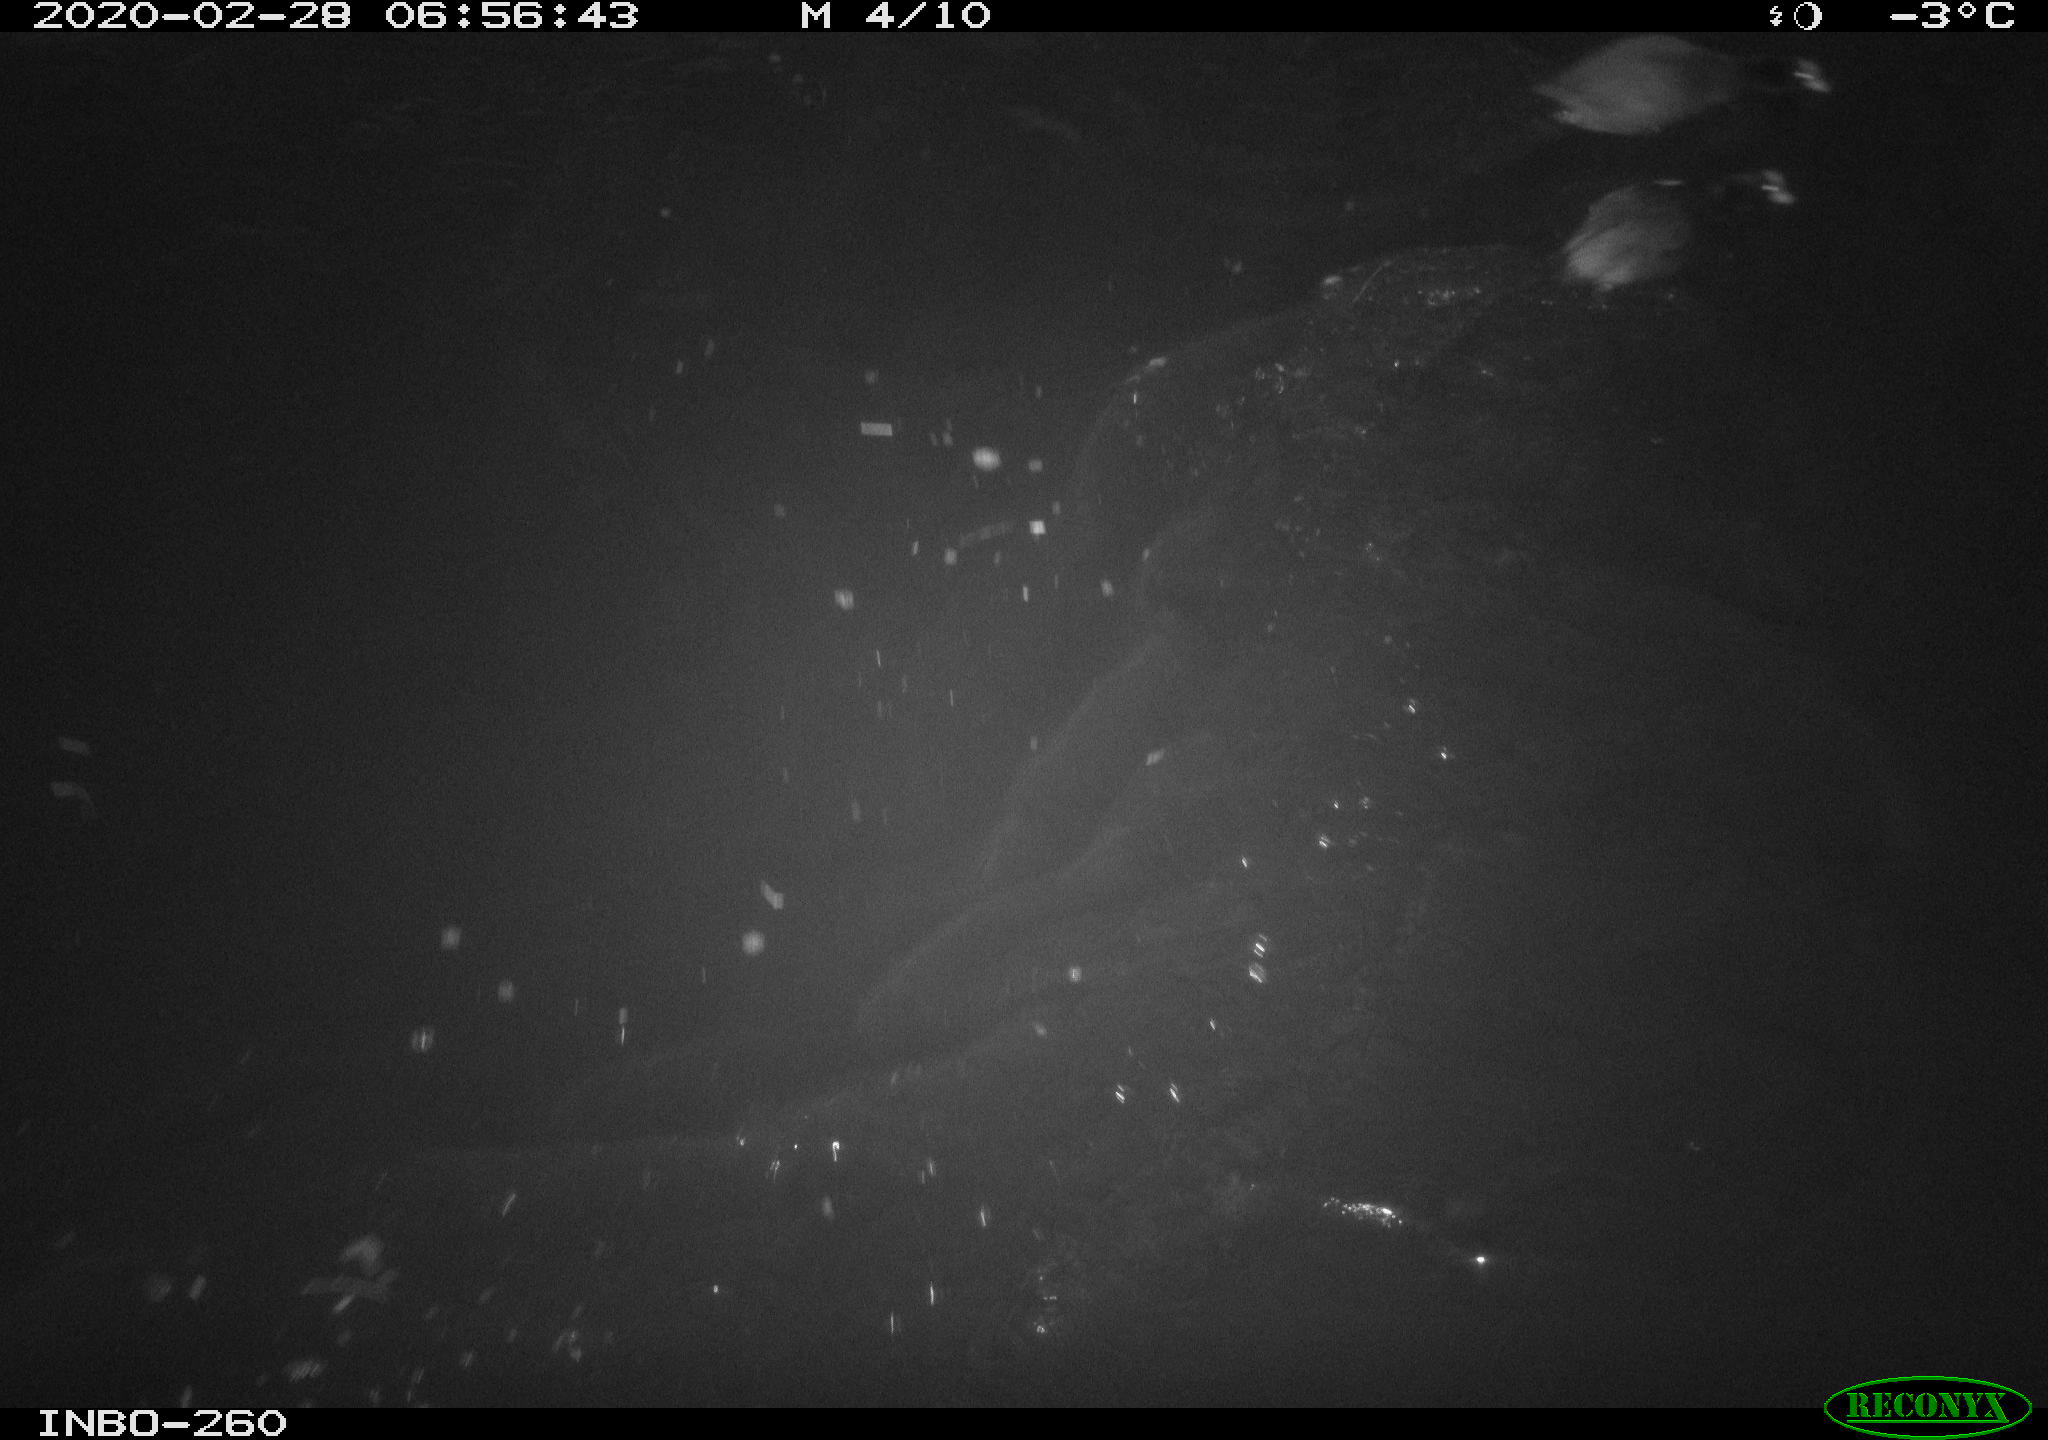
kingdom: Animalia
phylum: Chordata
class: Aves
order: Gruiformes
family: Rallidae
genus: Gallinula
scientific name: Gallinula chloropus
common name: Common moorhen
